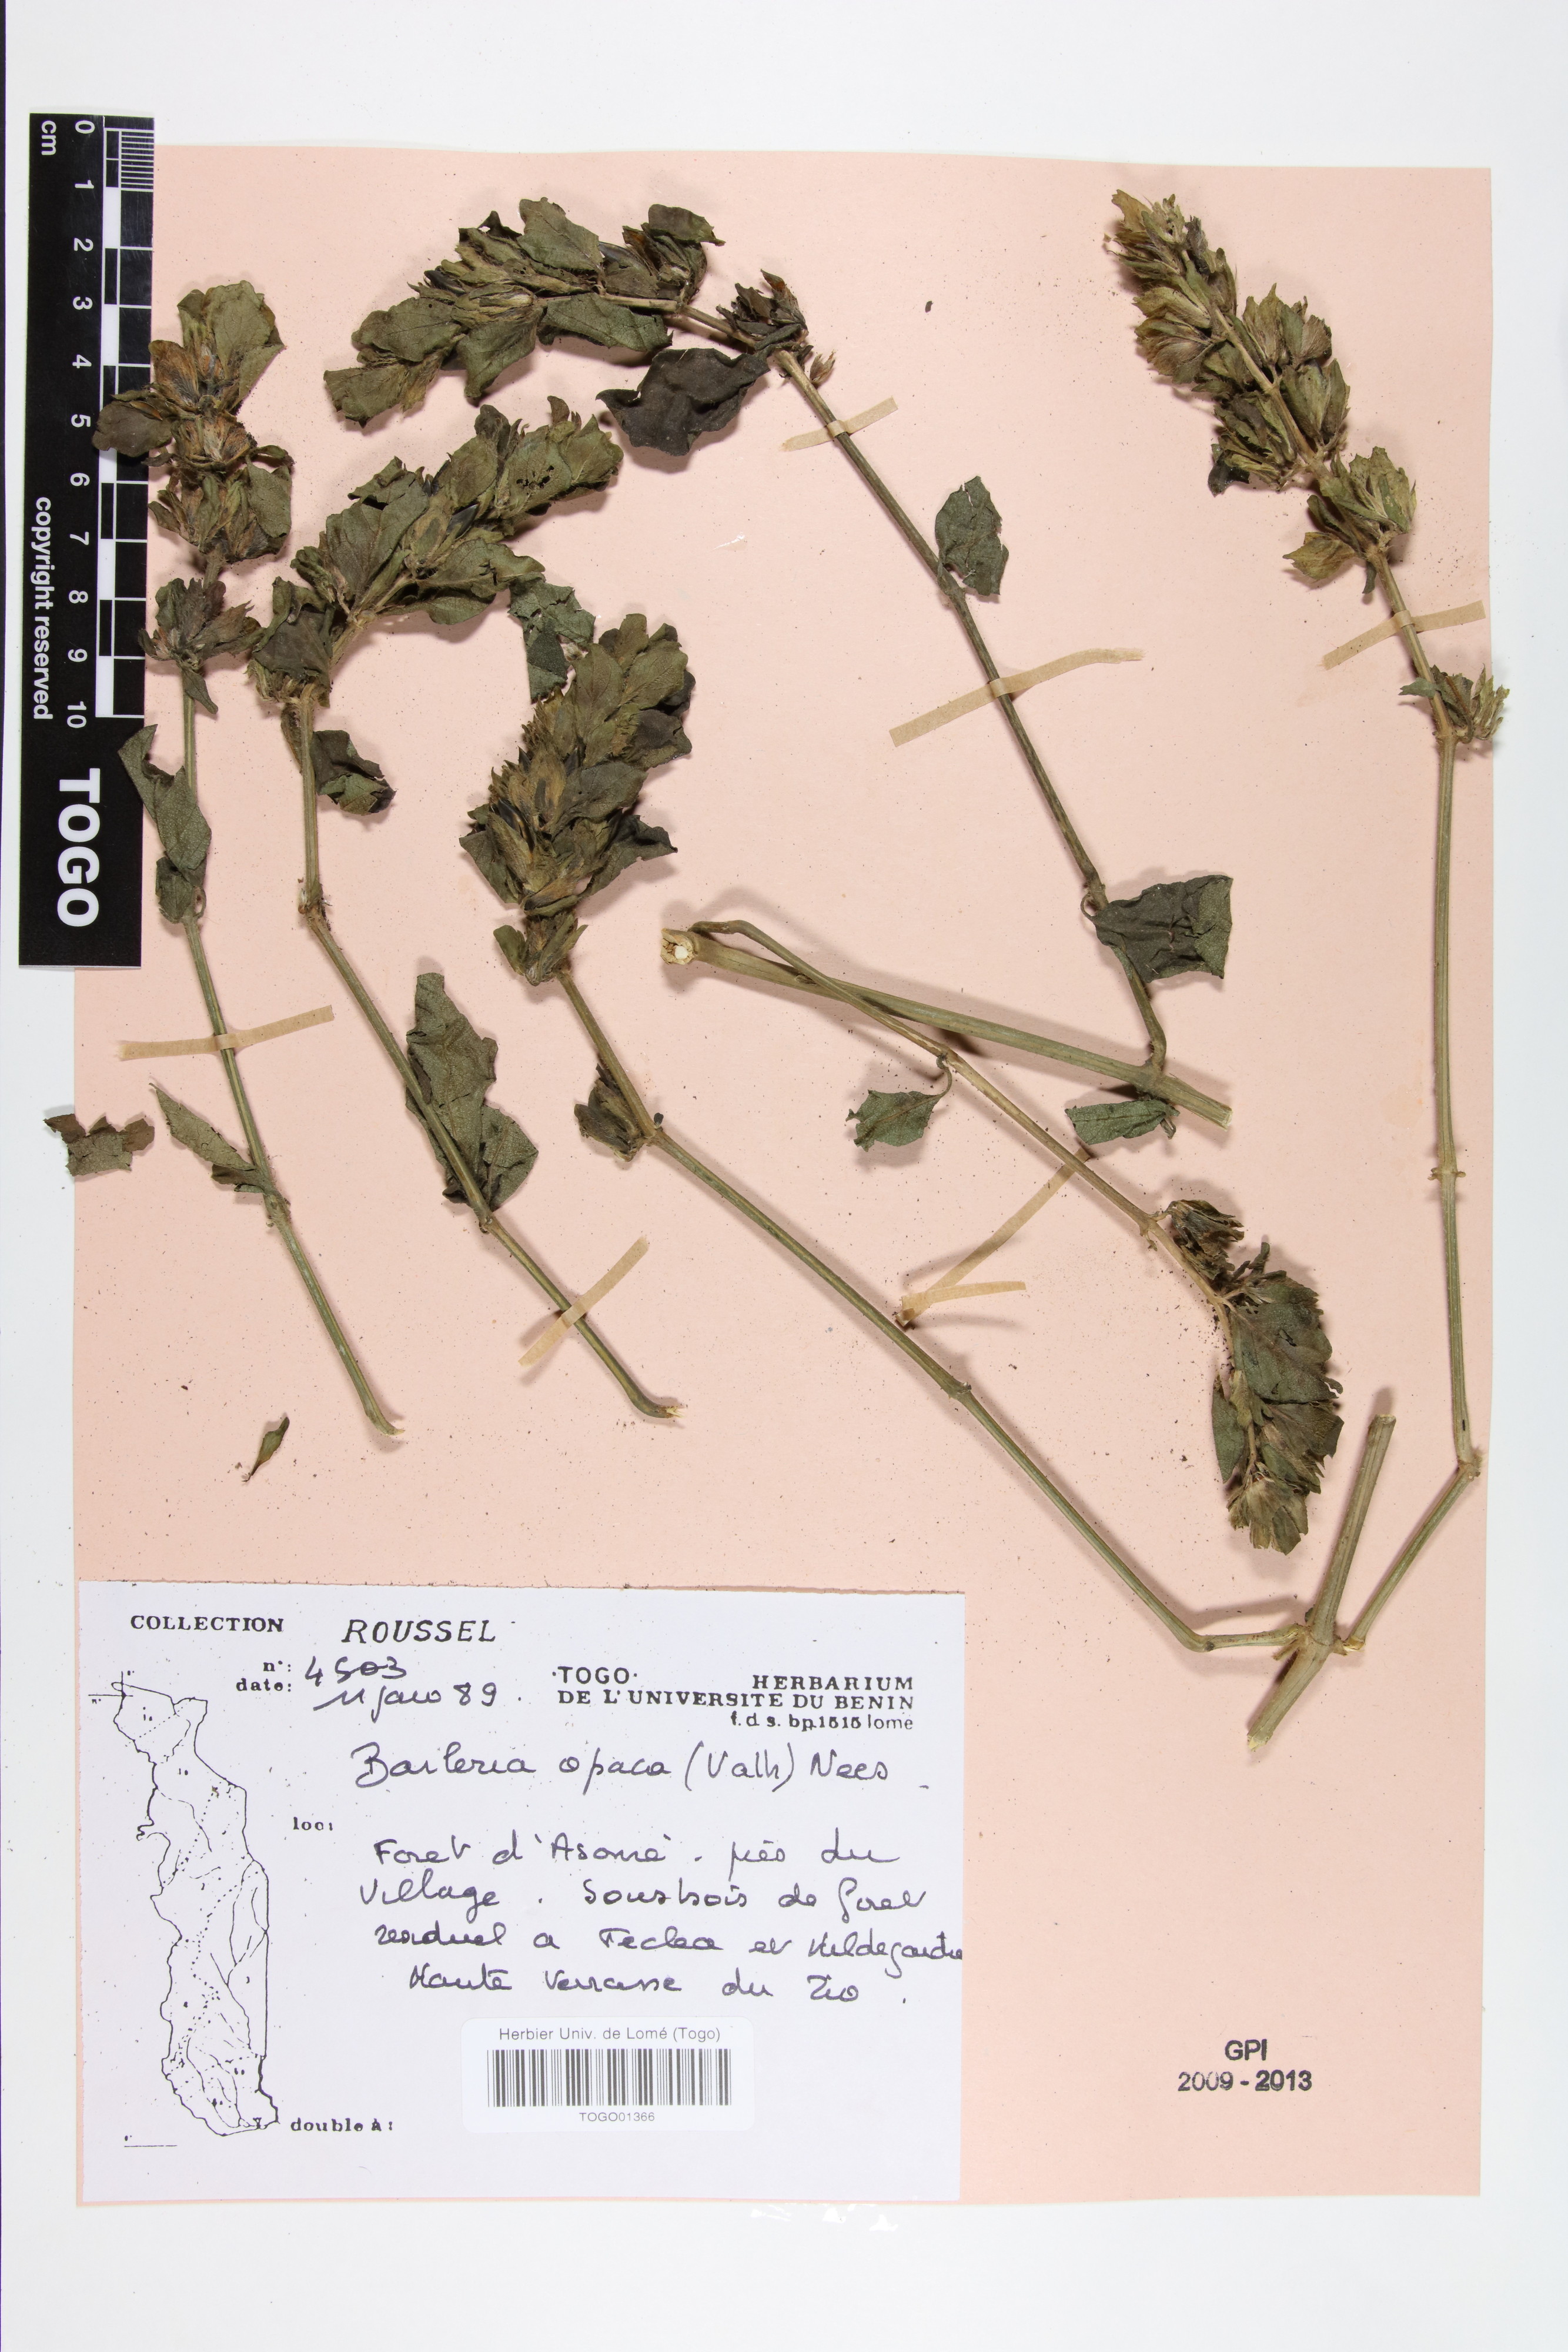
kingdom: Plantae
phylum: Tracheophyta
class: Magnoliopsida
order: Lamiales
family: Acanthaceae
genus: Barleria
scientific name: Barleria opaca
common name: Kwahu
